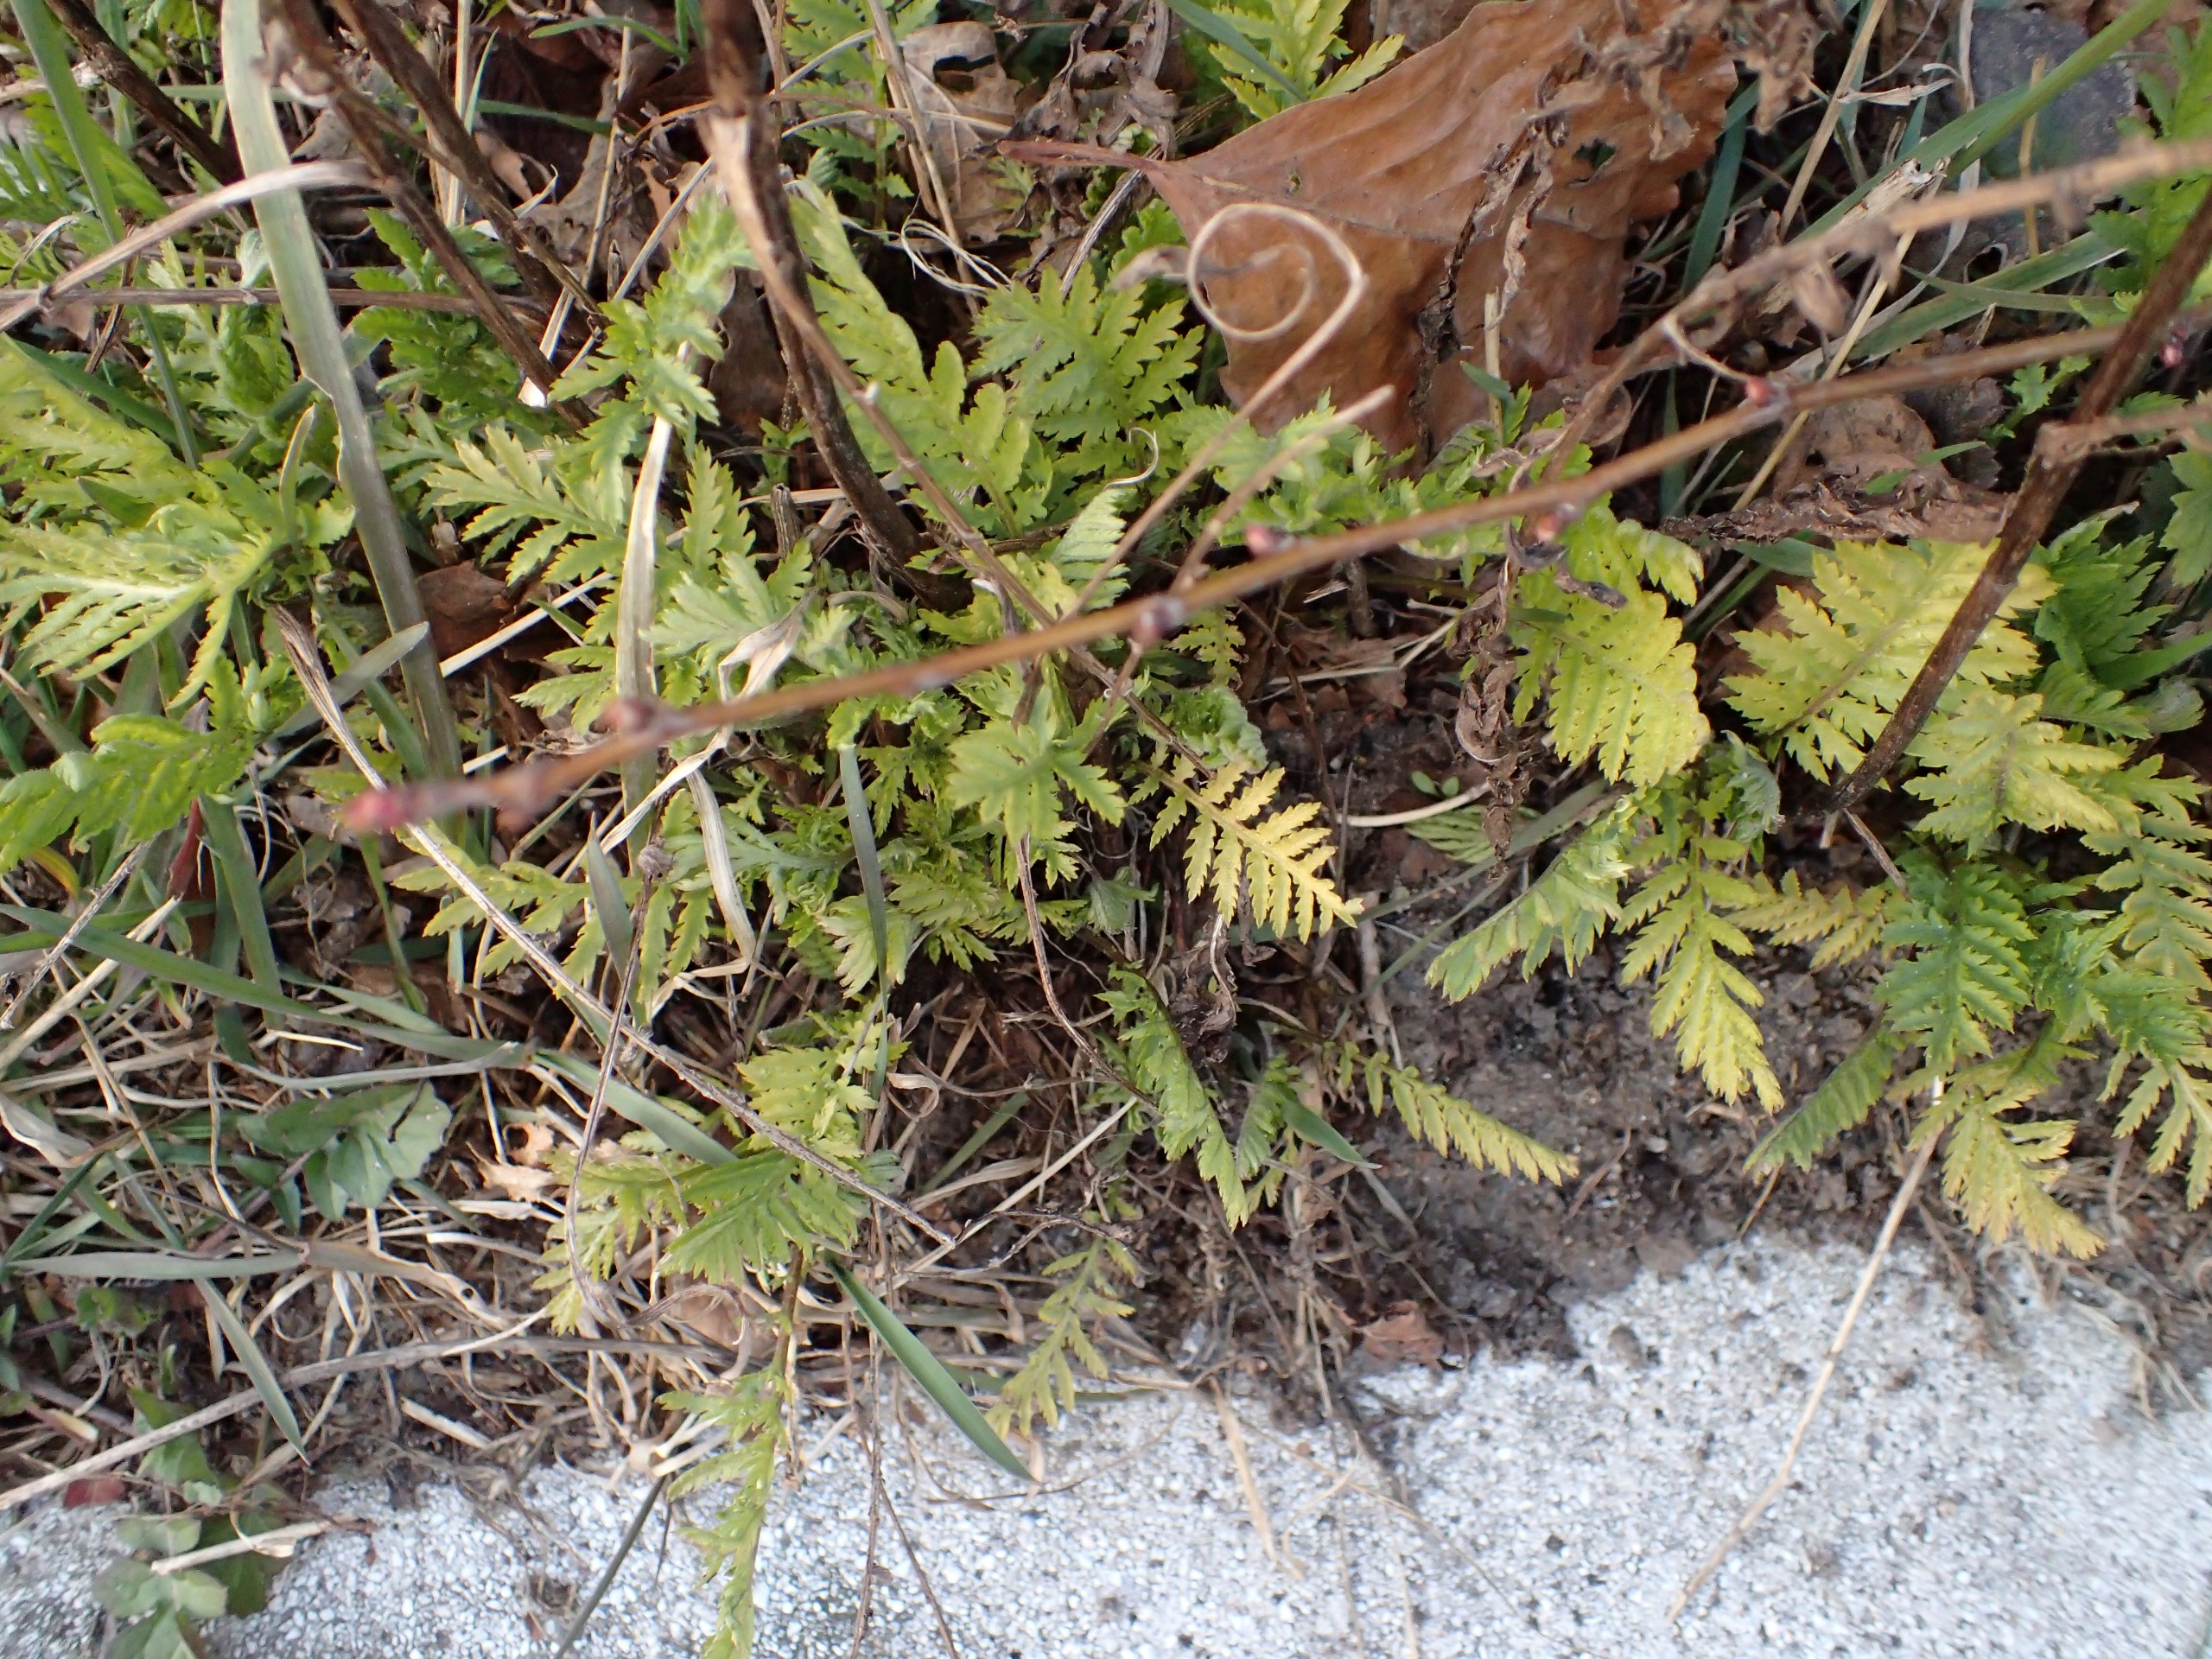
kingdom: Plantae
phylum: Tracheophyta
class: Magnoliopsida
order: Asterales
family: Asteraceae
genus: Tanacetum
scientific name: Tanacetum vulgare
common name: Rejnfan
